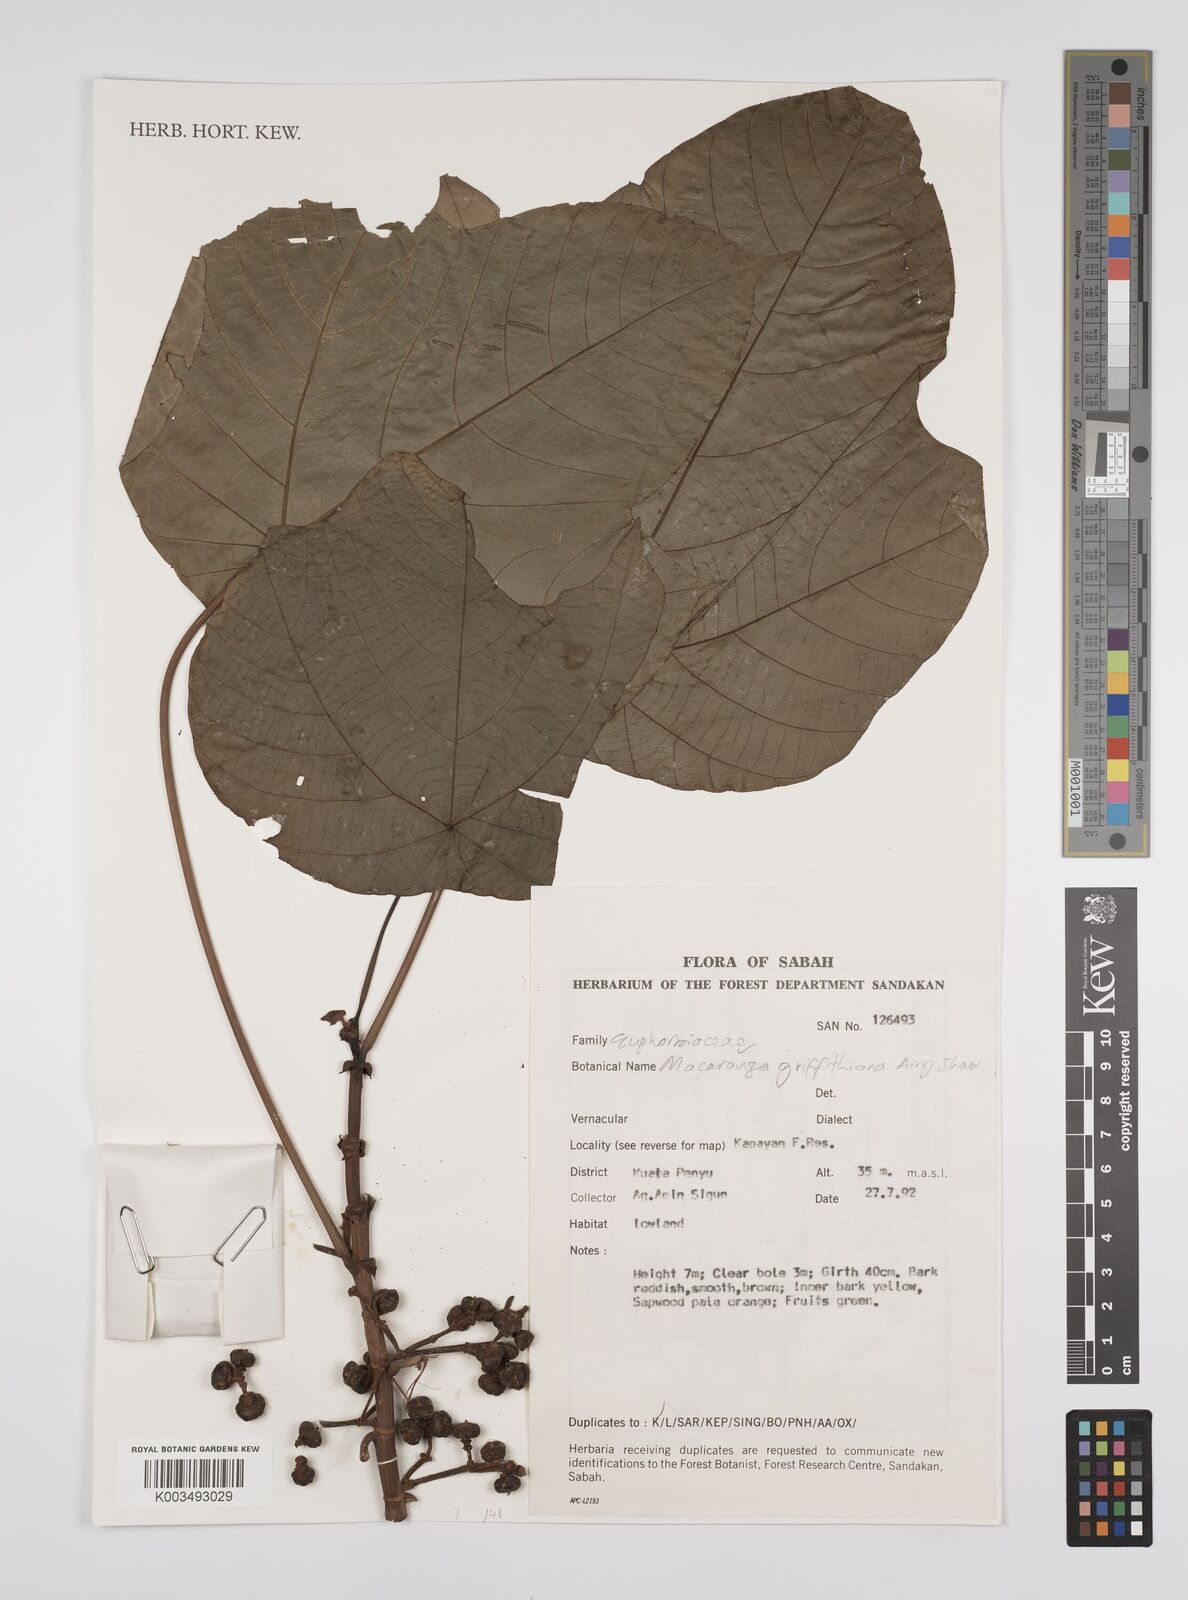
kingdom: Plantae
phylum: Tracheophyta
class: Magnoliopsida
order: Malpighiales
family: Euphorbiaceae
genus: Macaranga
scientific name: Macaranga griffithiana
